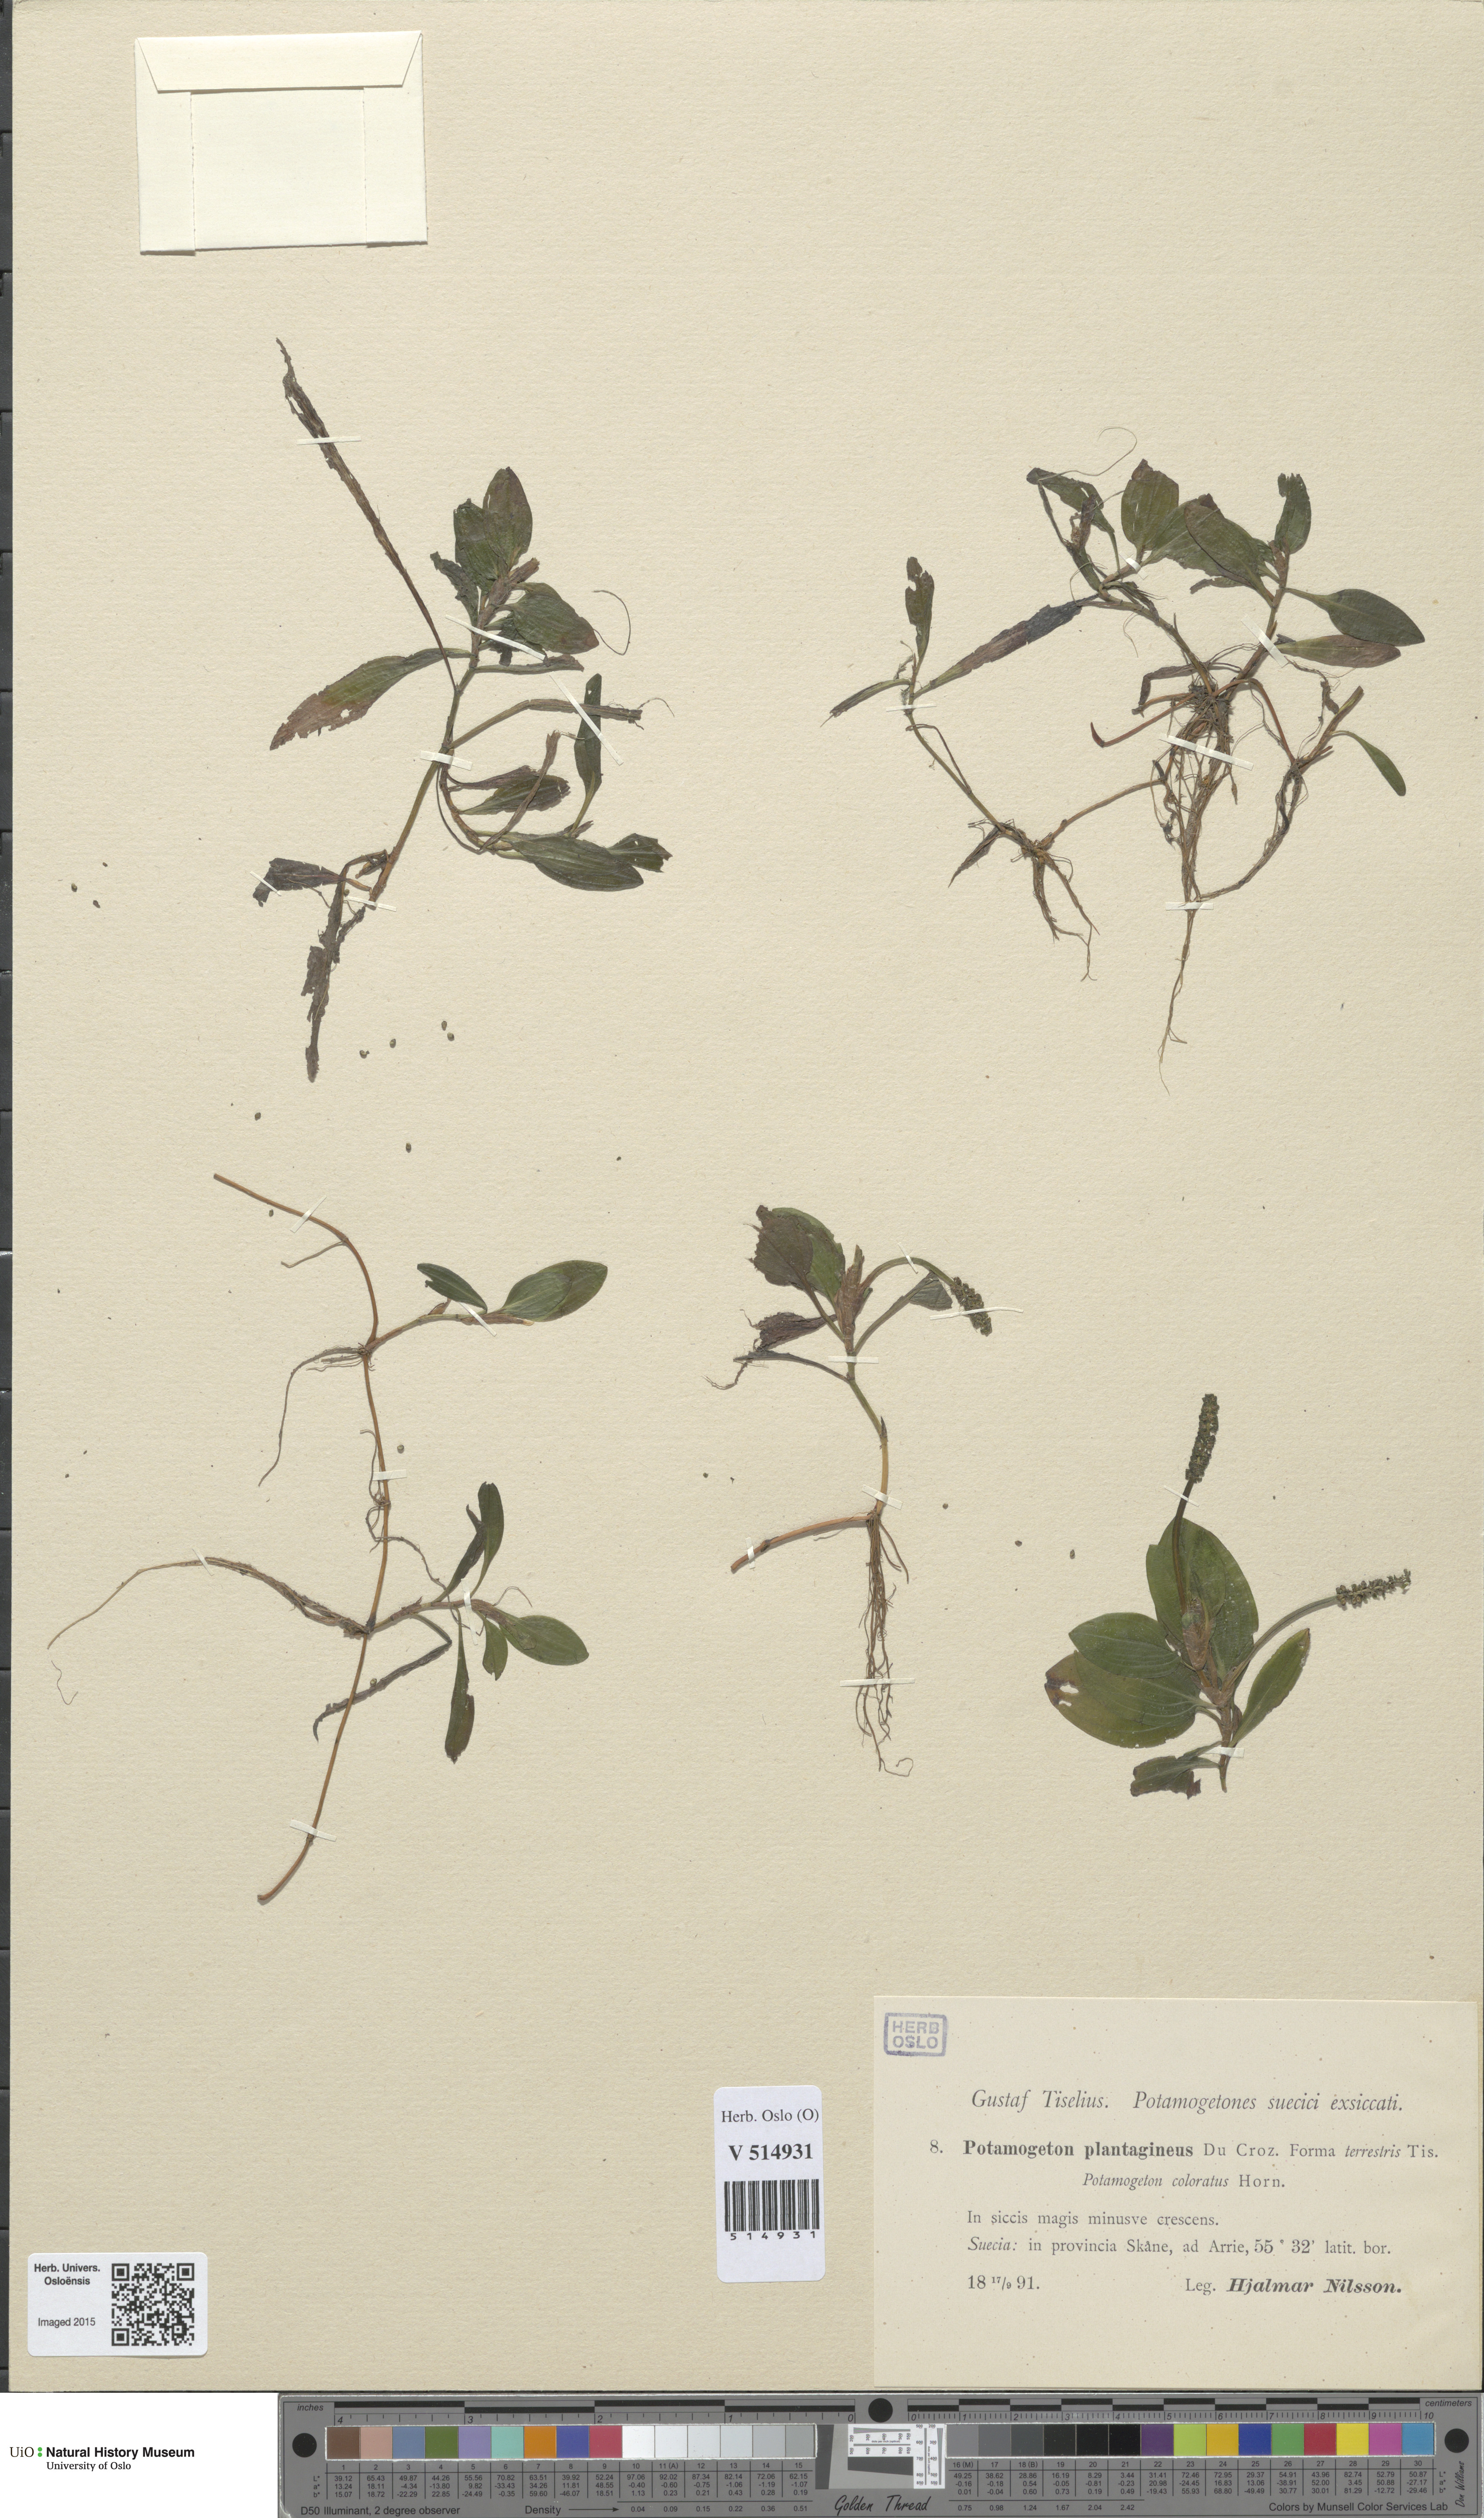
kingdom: Plantae
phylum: Tracheophyta
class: Liliopsida
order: Alismatales
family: Potamogetonaceae
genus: Potamogeton
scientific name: Potamogeton coloratus
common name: Fen pondweed
